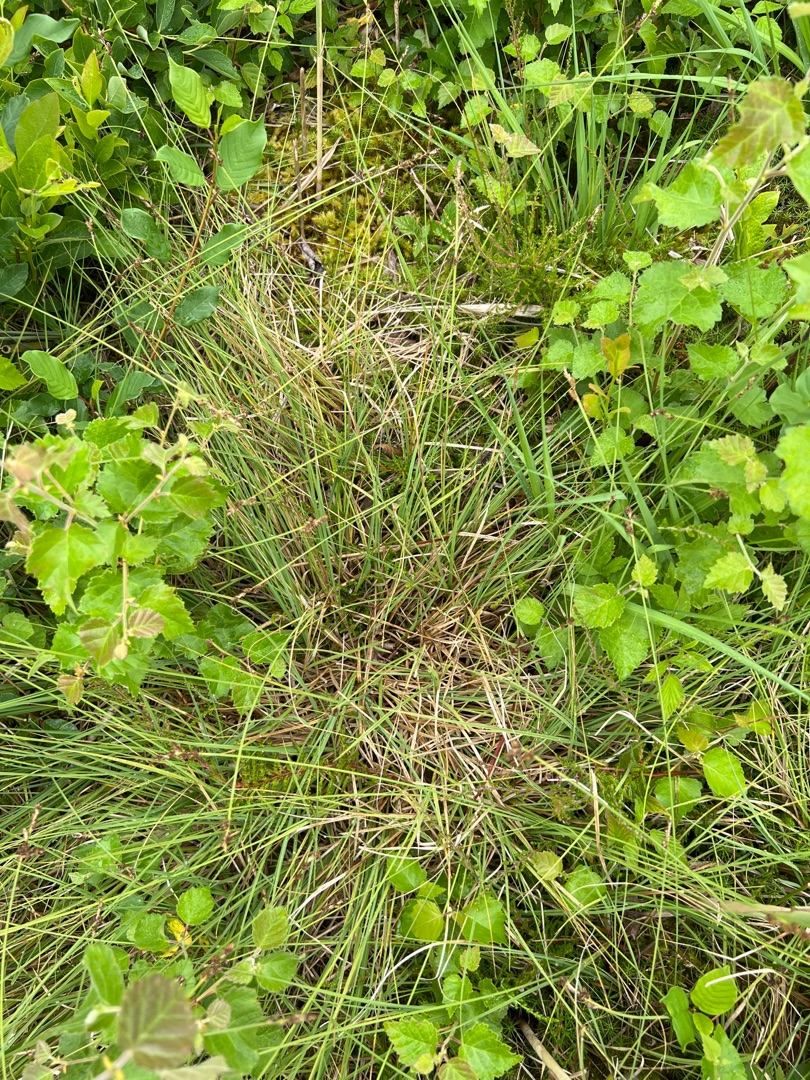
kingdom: Plantae
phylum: Tracheophyta
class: Liliopsida
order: Poales
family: Cyperaceae
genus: Carex
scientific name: Carex canescens
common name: Grå star
